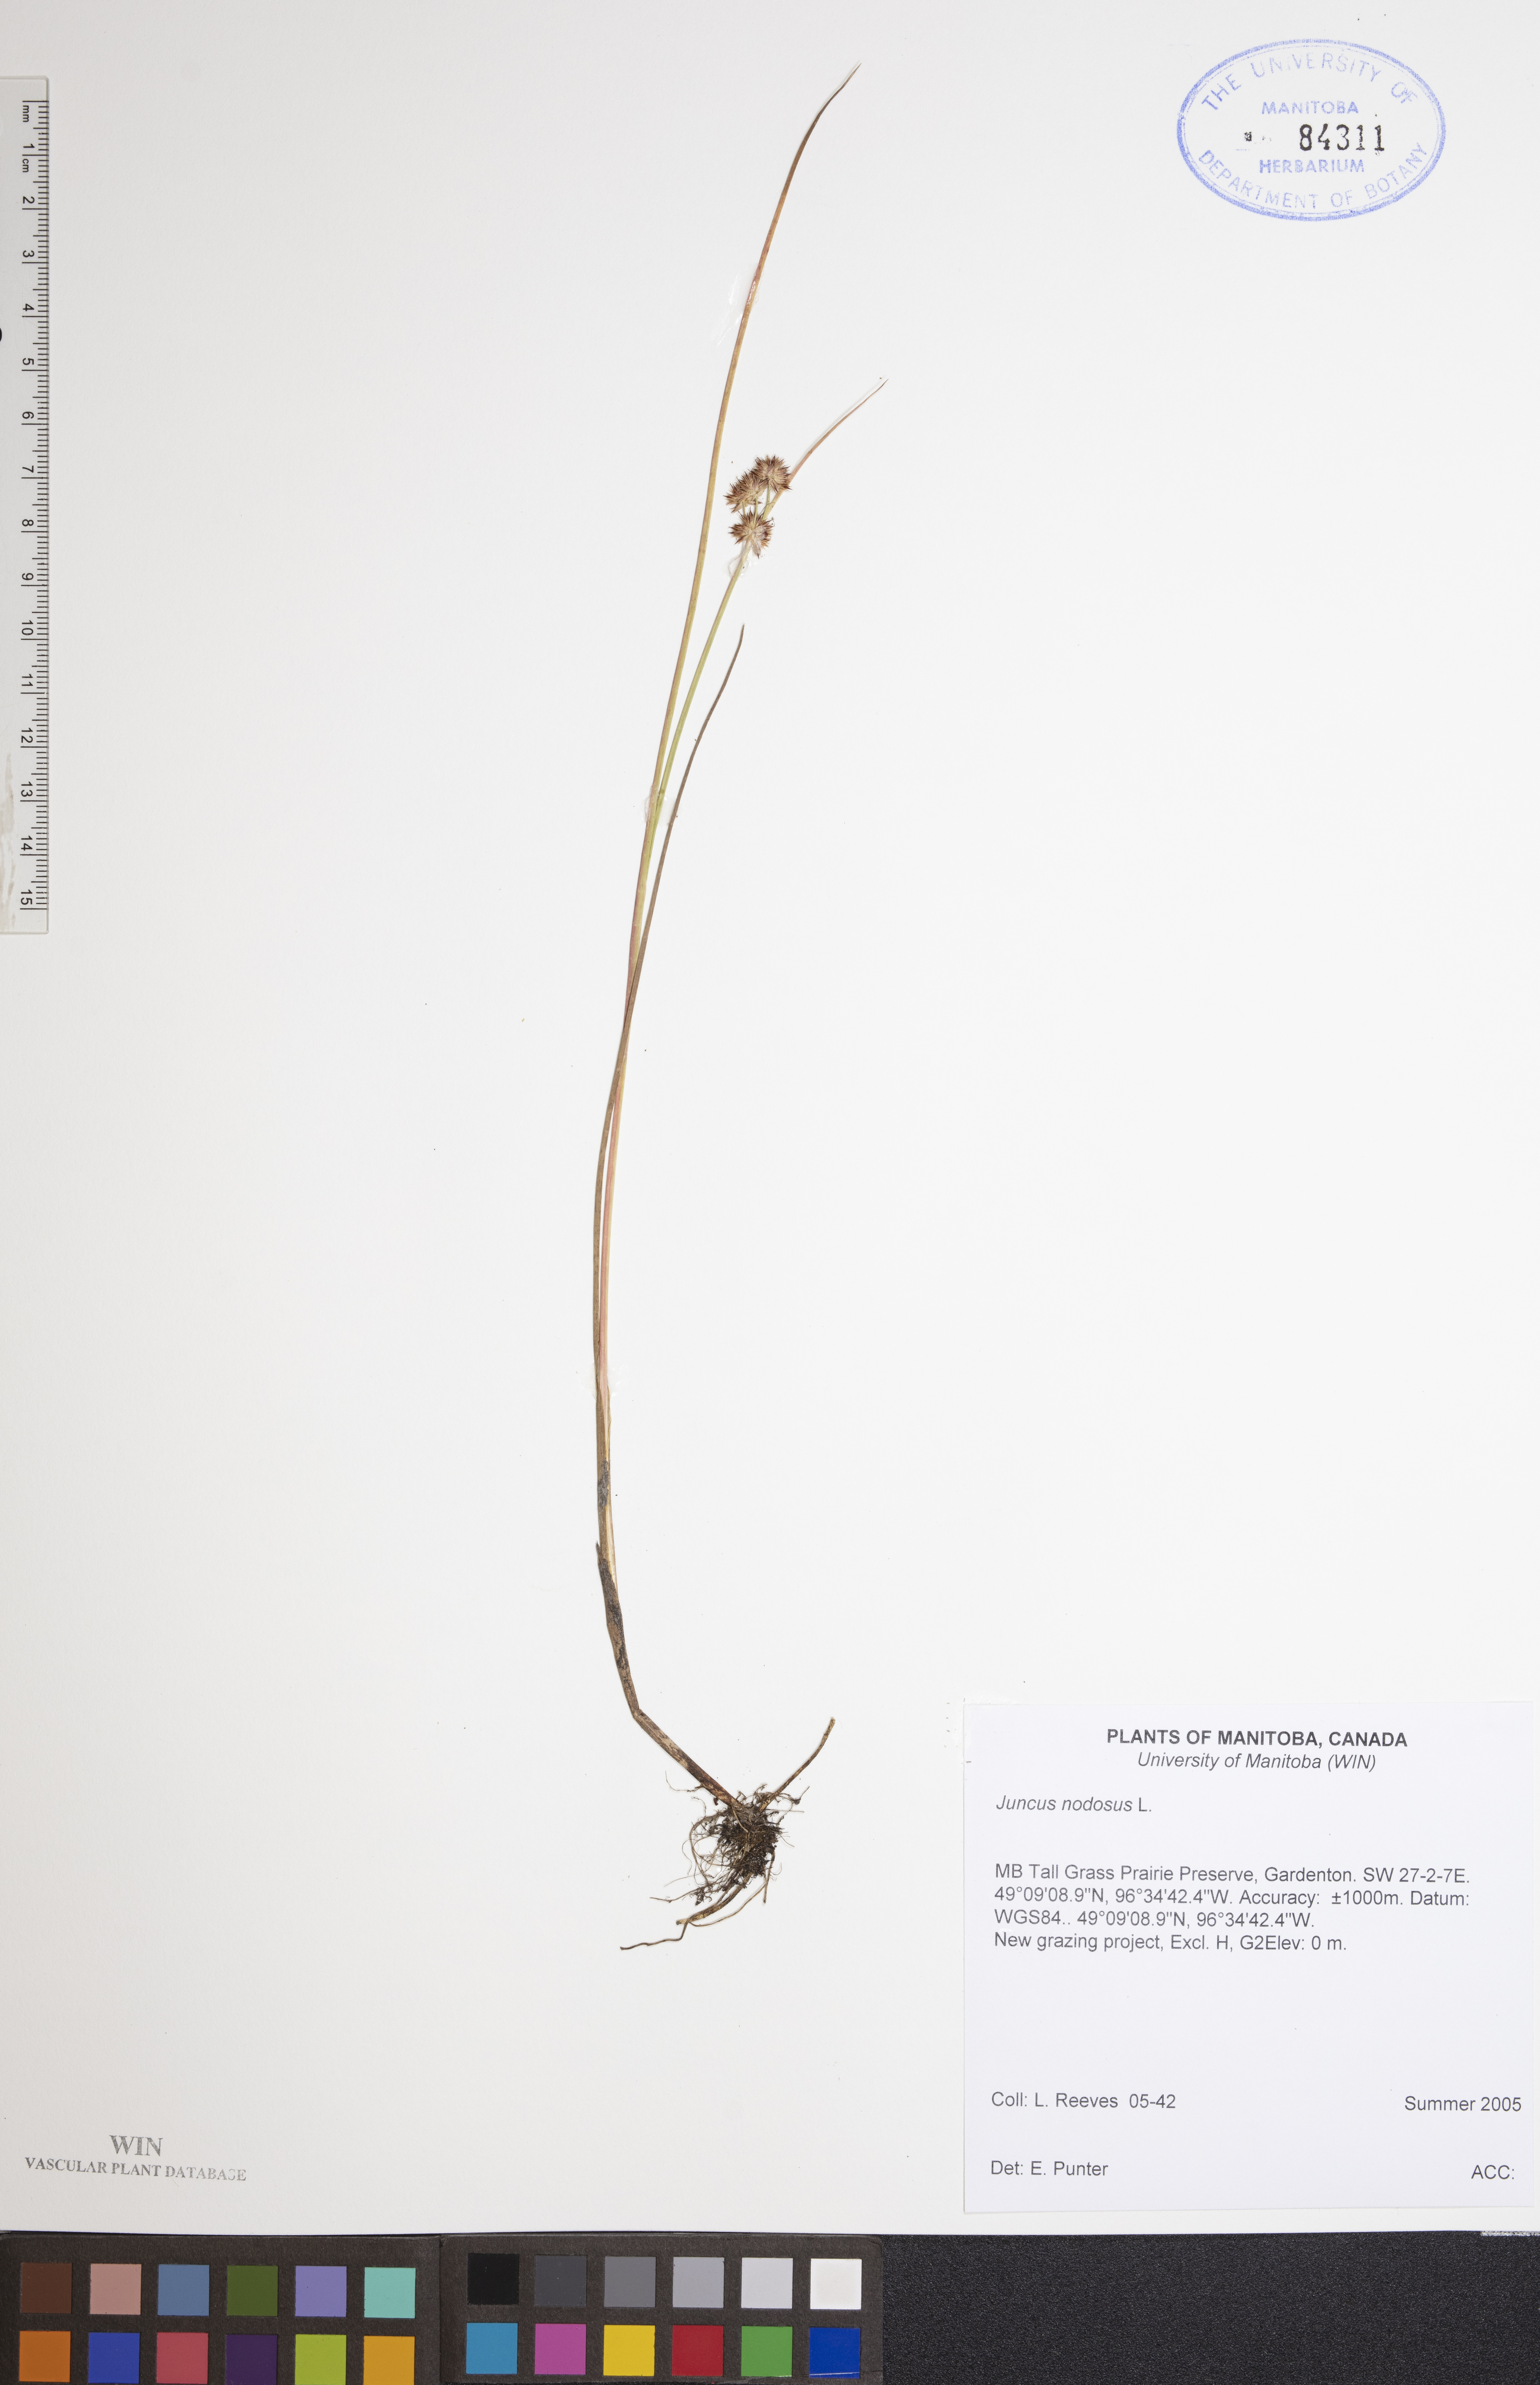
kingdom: Plantae
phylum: Tracheophyta
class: Liliopsida
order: Poales
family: Juncaceae
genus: Juncus
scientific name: Juncus nodosus
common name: Knotted rush
